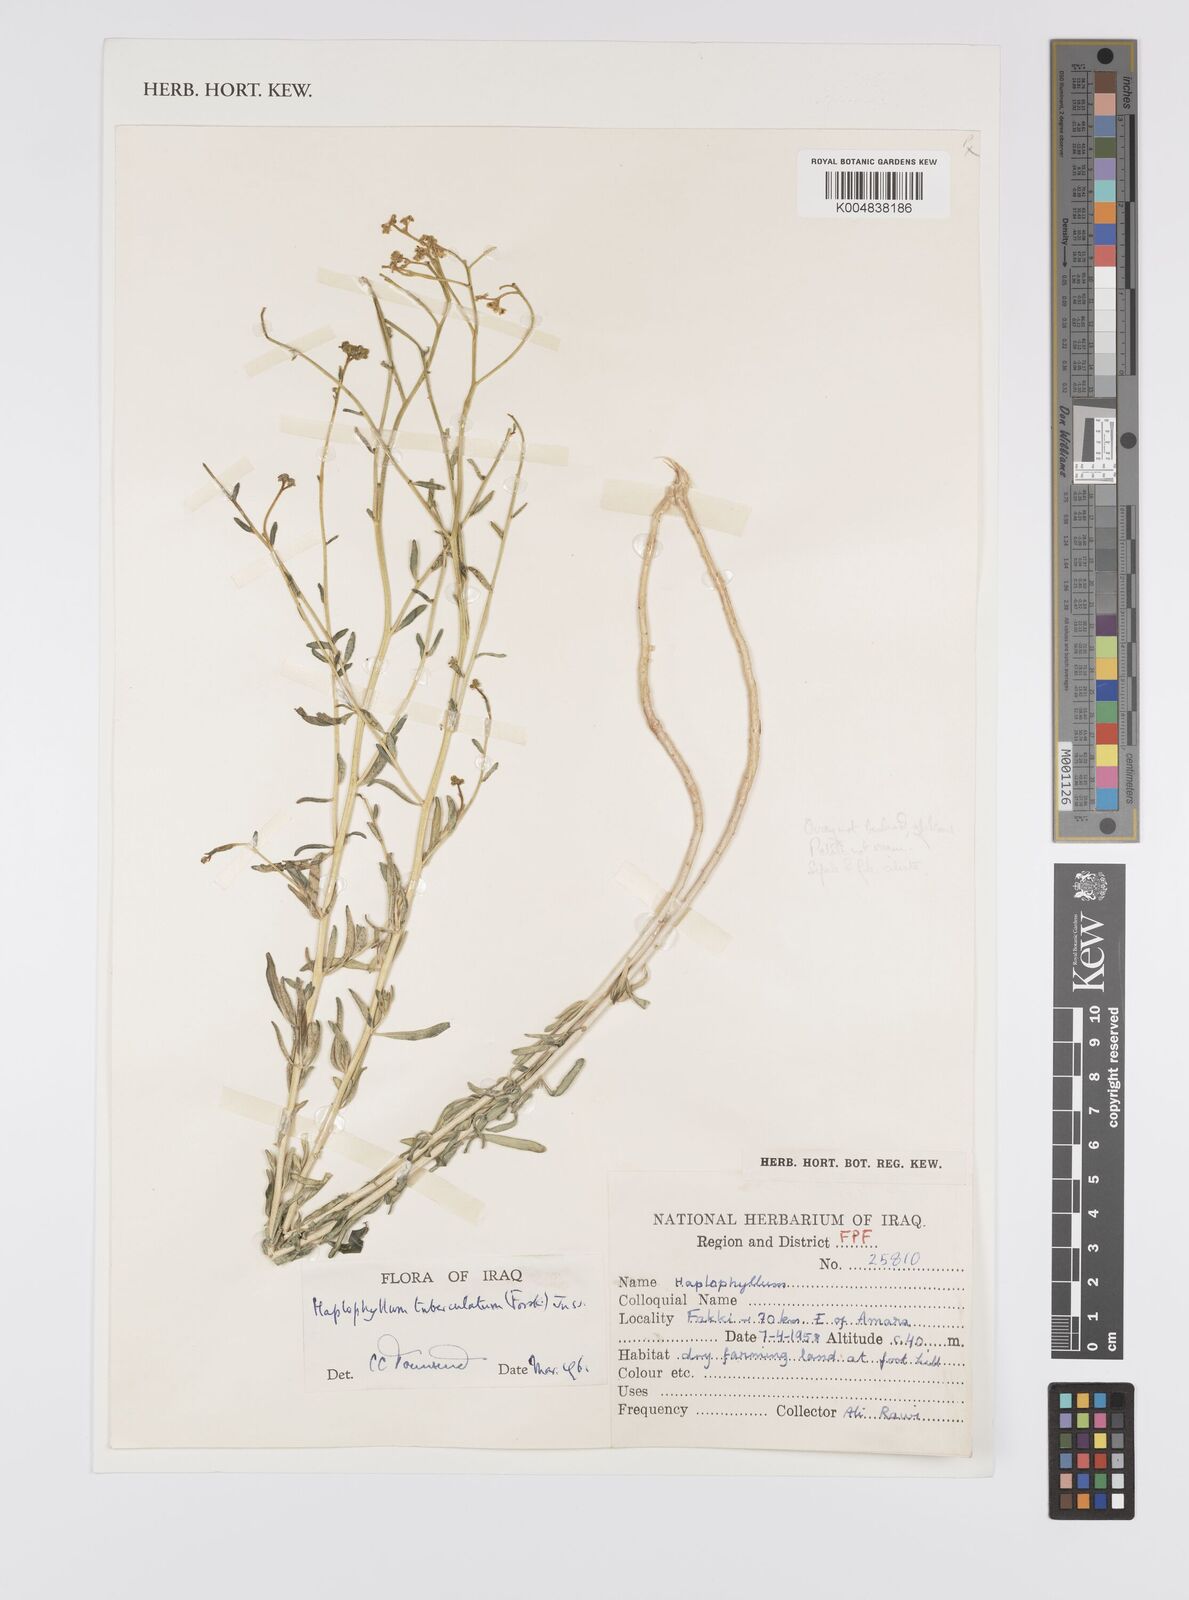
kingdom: Plantae
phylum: Tracheophyta
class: Magnoliopsida
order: Sapindales
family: Rutaceae
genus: Haplophyllum
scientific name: Haplophyllum tuberculatum
